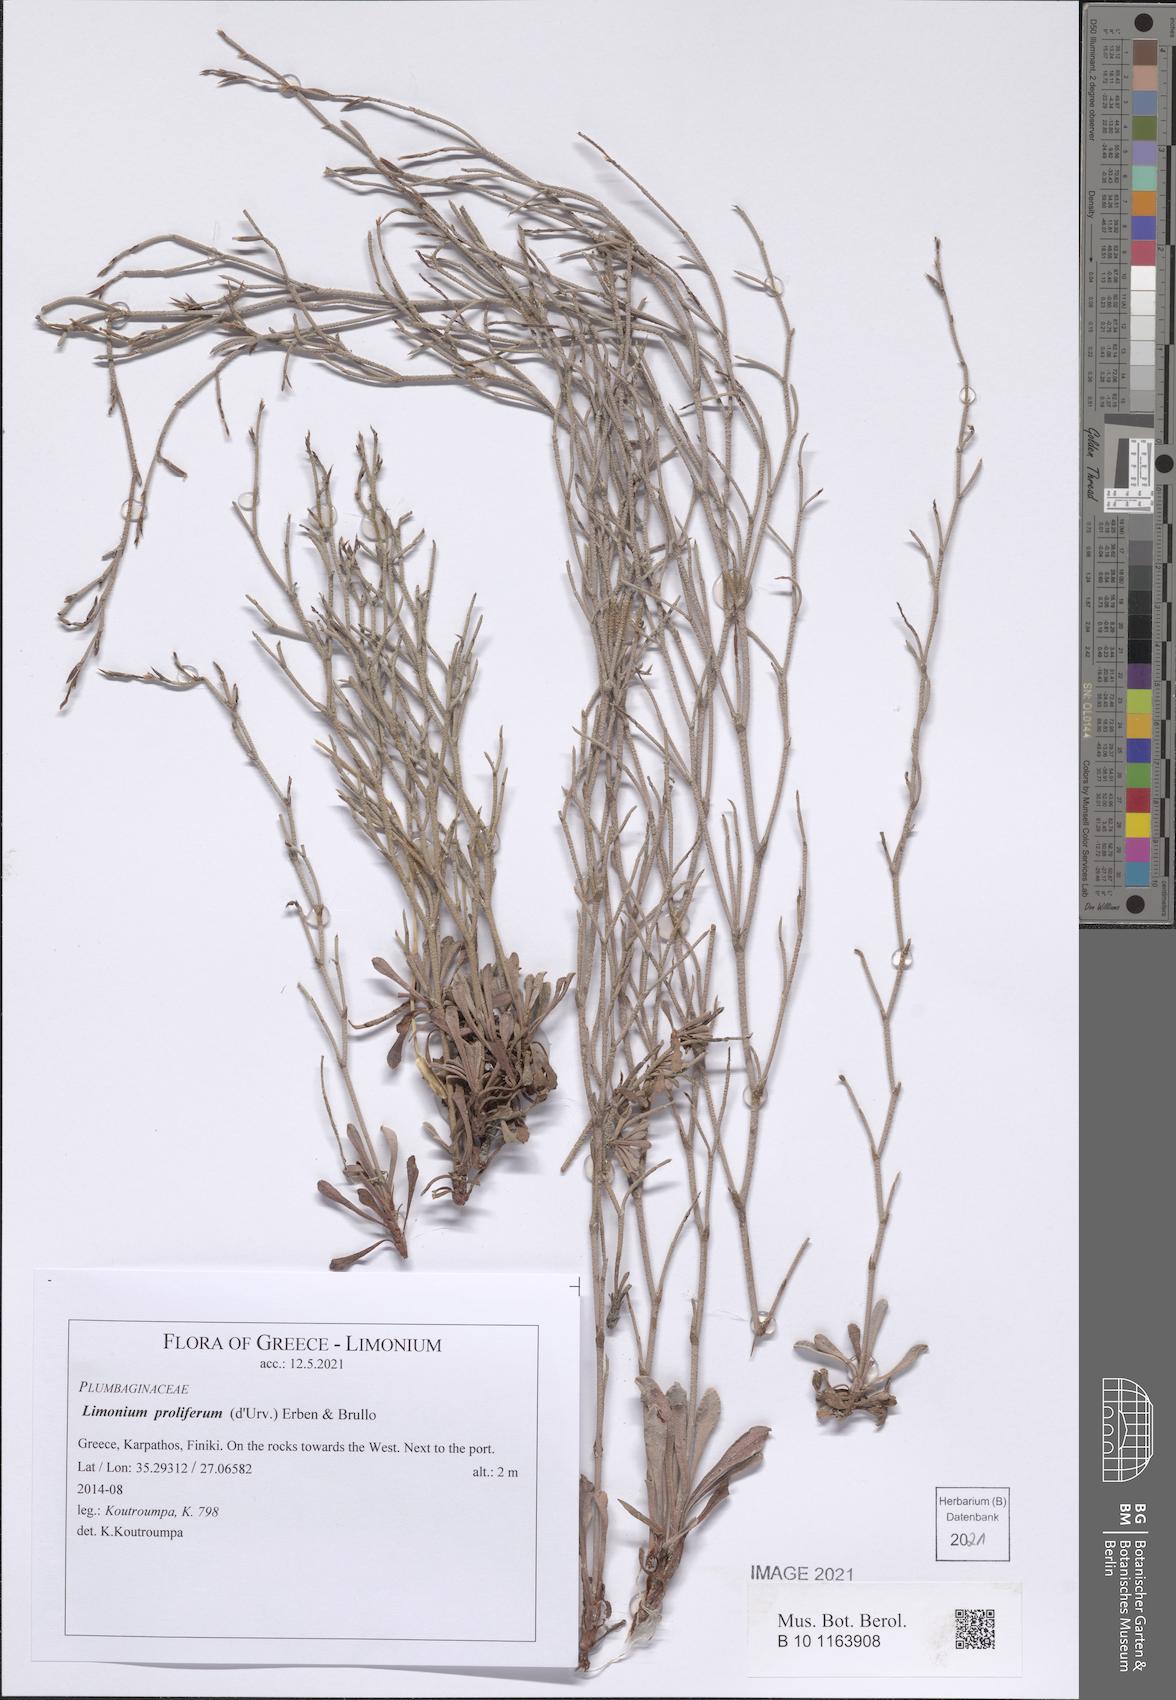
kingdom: Plantae
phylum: Tracheophyta
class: Magnoliopsida
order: Caryophyllales
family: Plumbaginaceae
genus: Limonium
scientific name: Limonium proliferum
